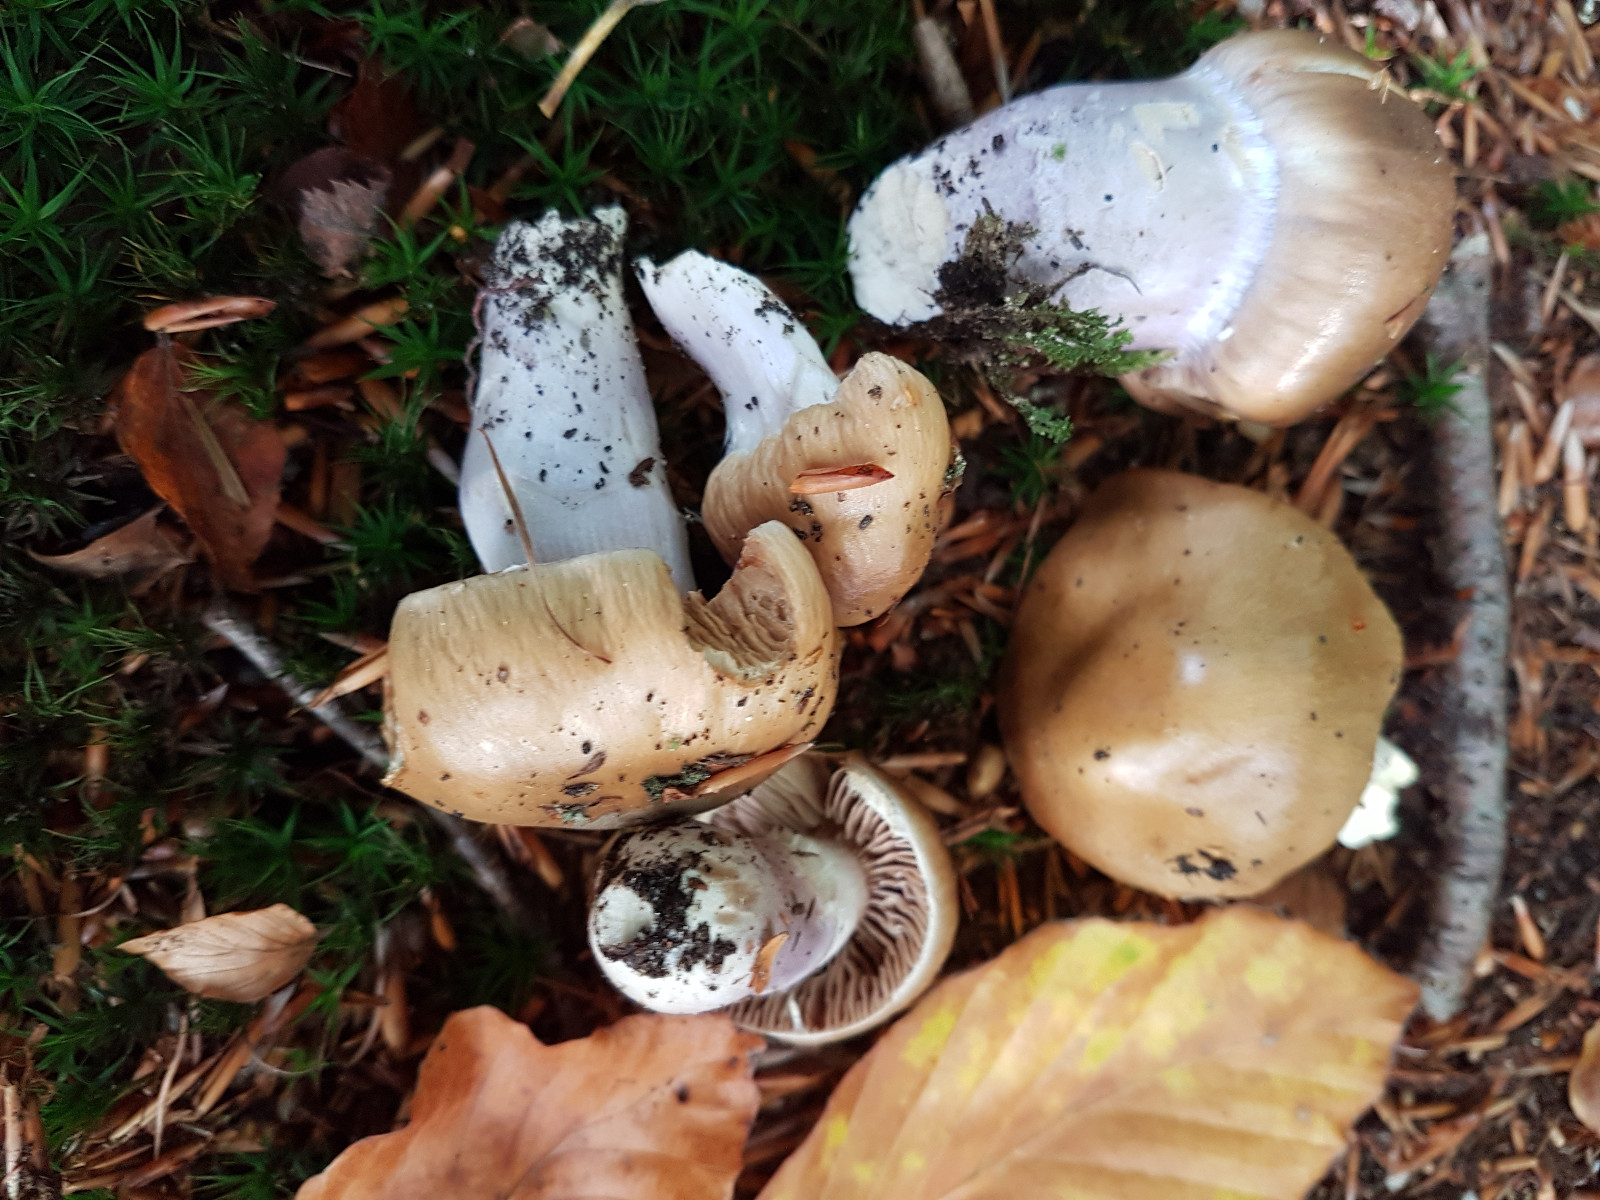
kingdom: Fungi
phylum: Basidiomycota
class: Agaricomycetes
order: Agaricales
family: Cortinariaceae
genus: Cortinarius
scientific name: Cortinarius
